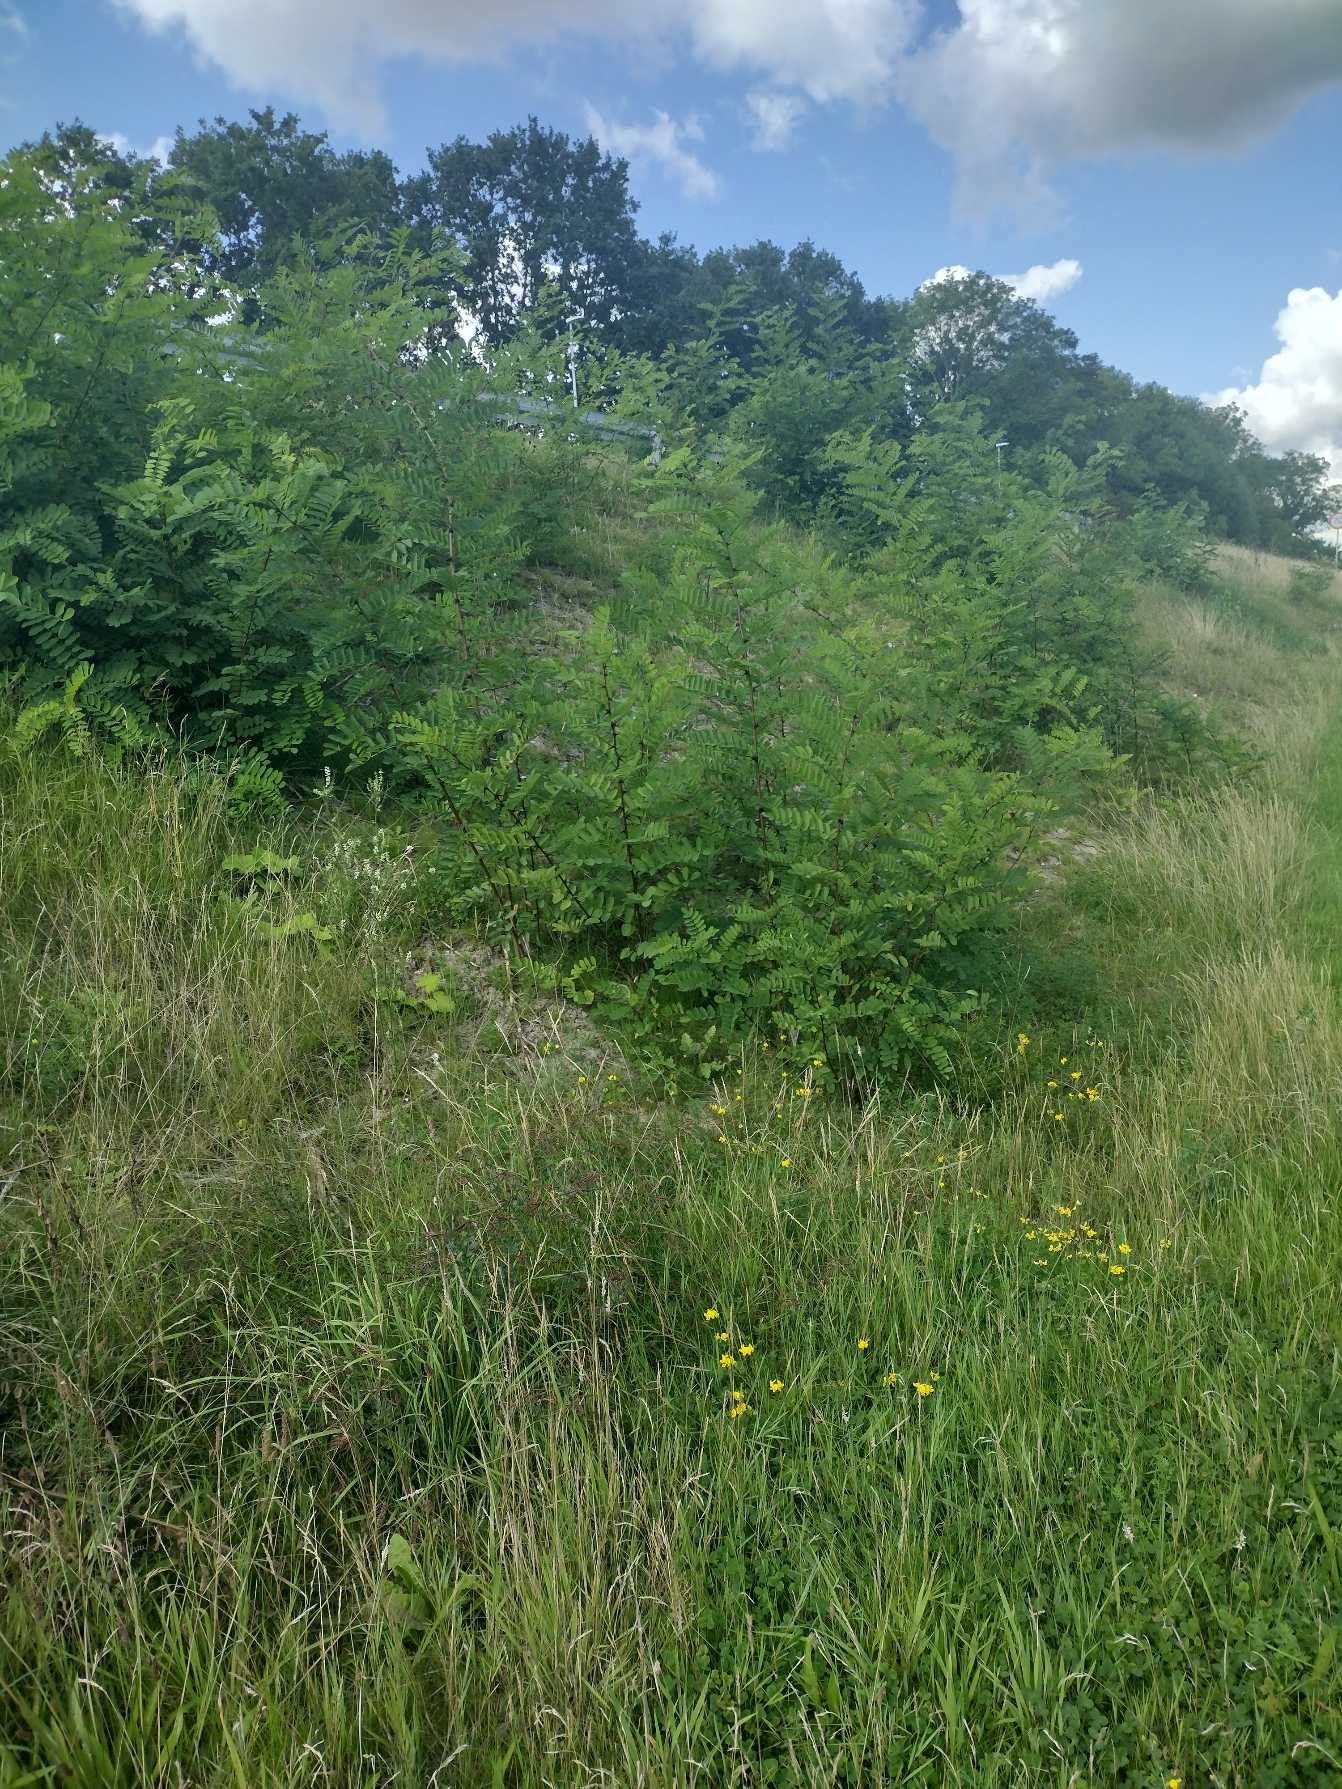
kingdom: Plantae
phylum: Tracheophyta
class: Magnoliopsida
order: Fabales
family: Fabaceae
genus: Robinia
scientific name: Robinia pseudoacacia
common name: Robinie
